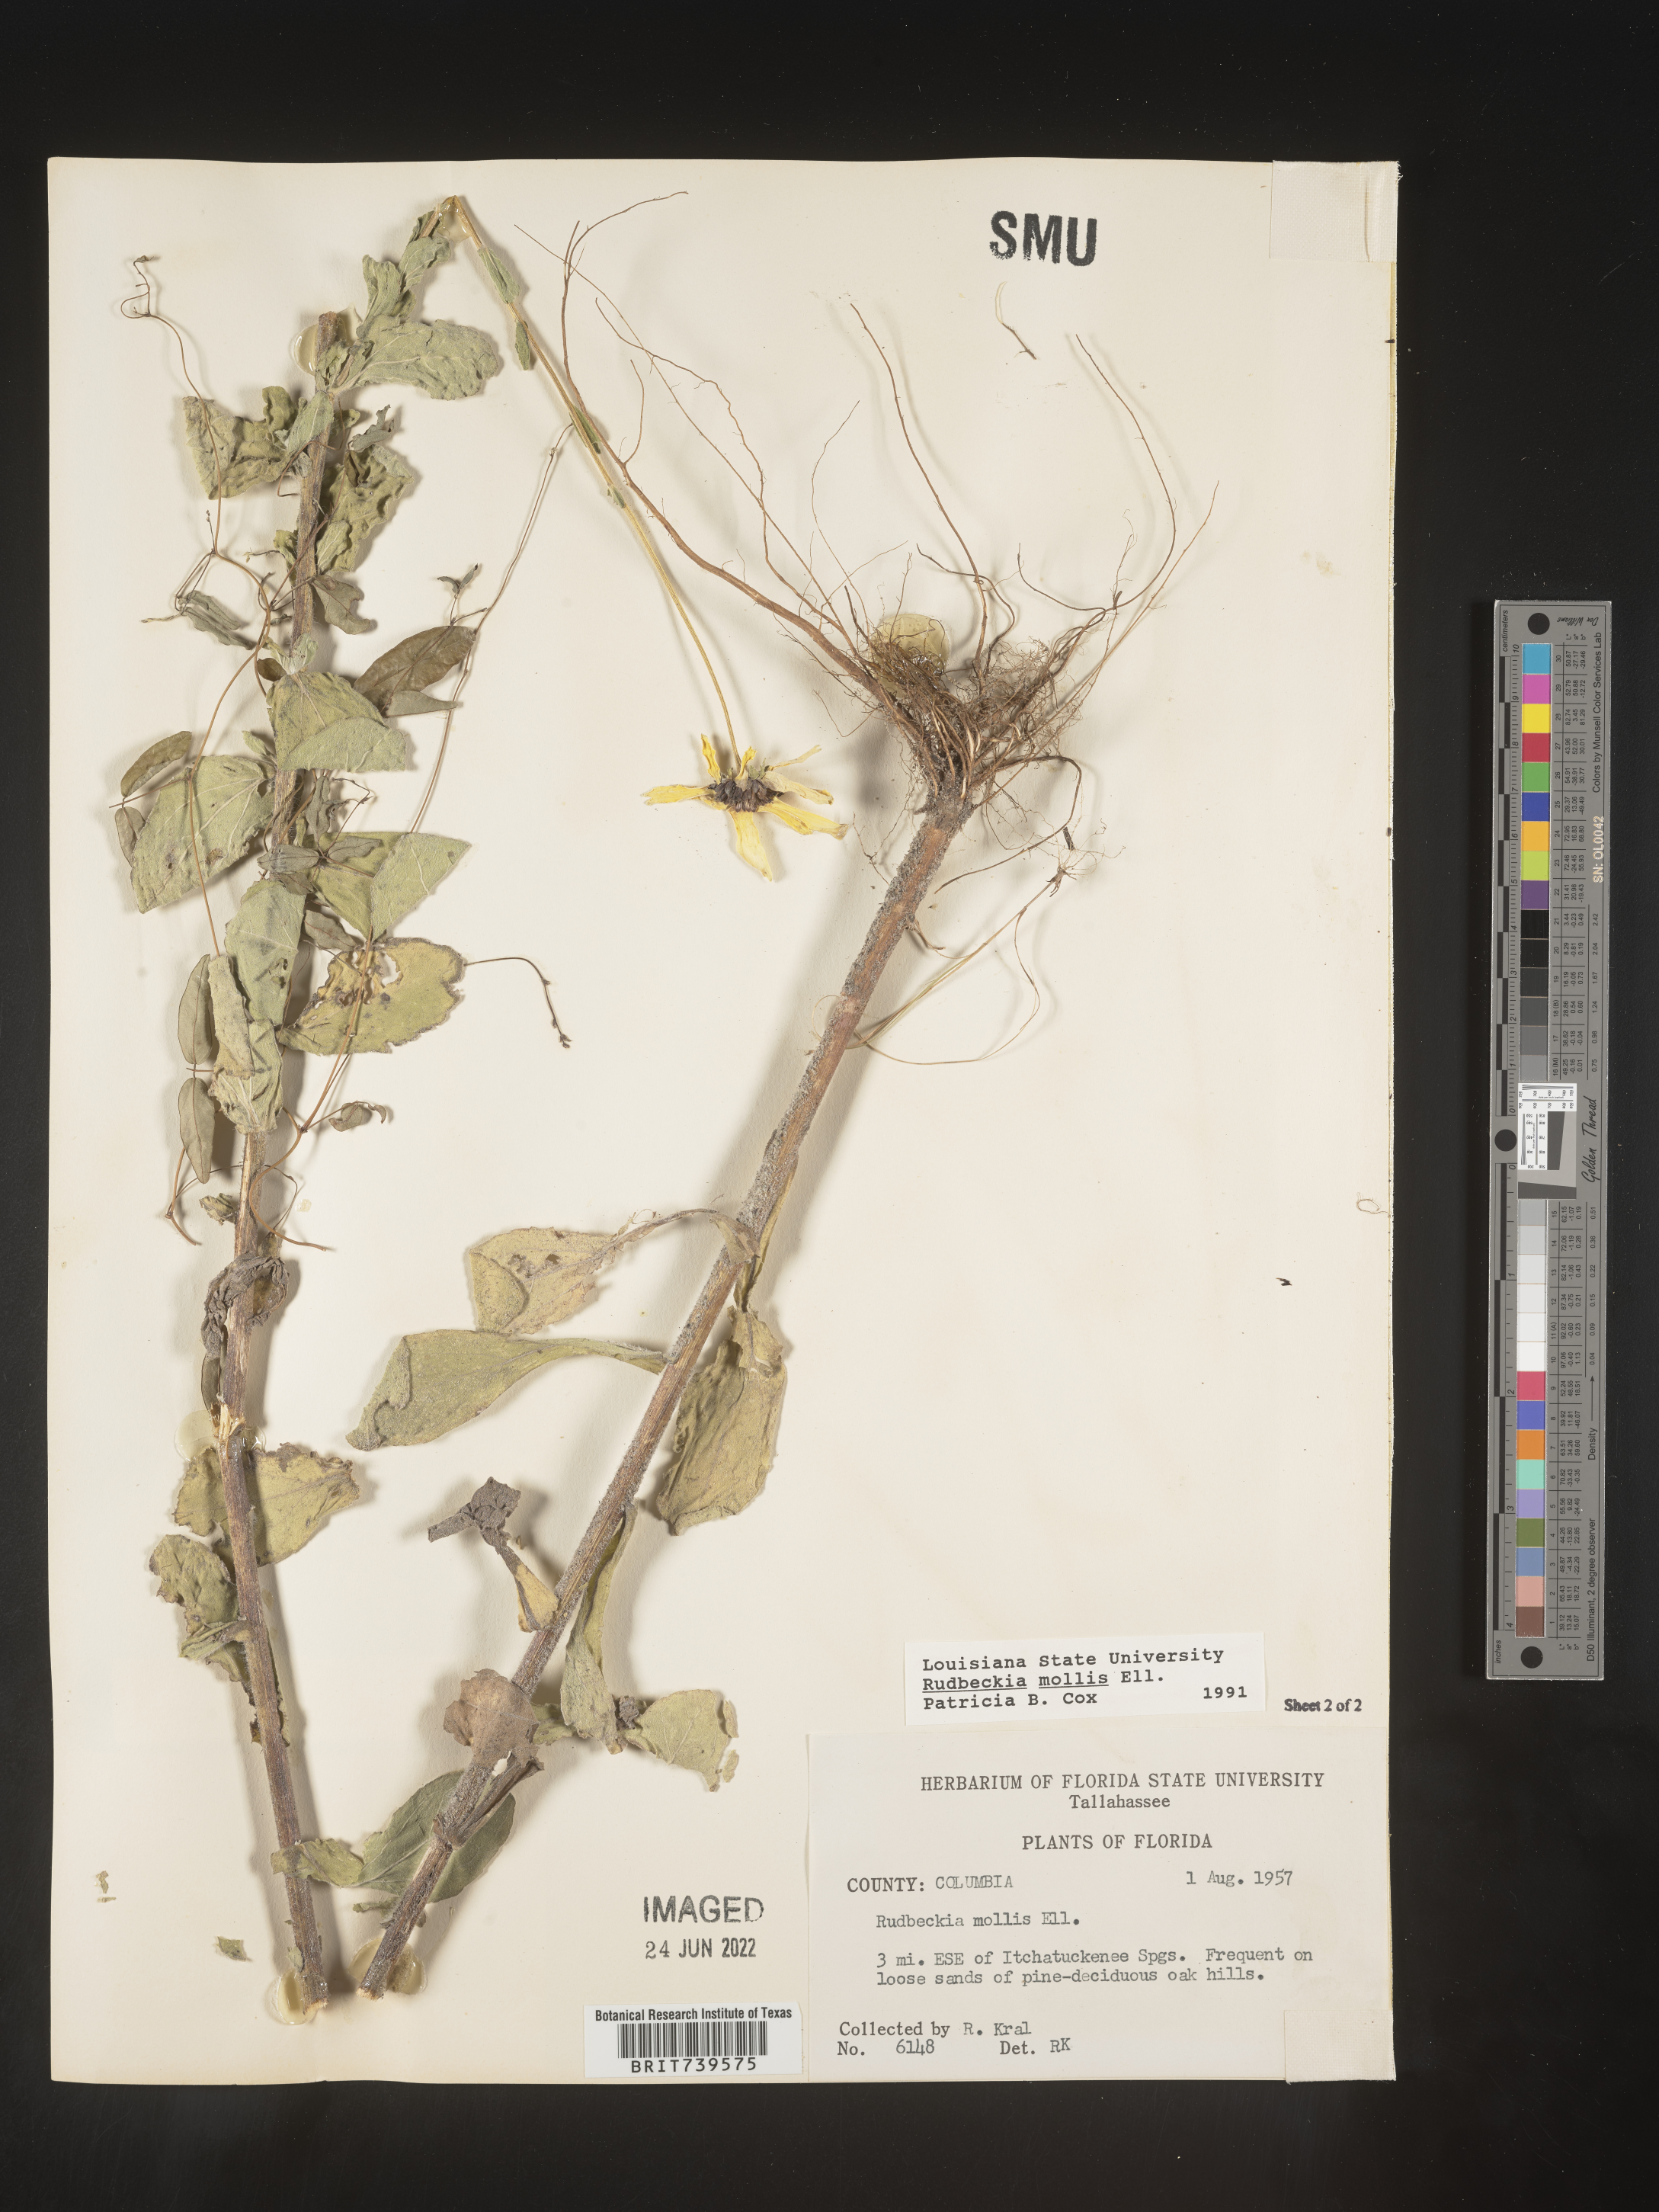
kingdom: Plantae
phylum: Tracheophyta
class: Magnoliopsida
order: Asterales
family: Asteraceae
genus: Rudbeckia
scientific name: Rudbeckia
